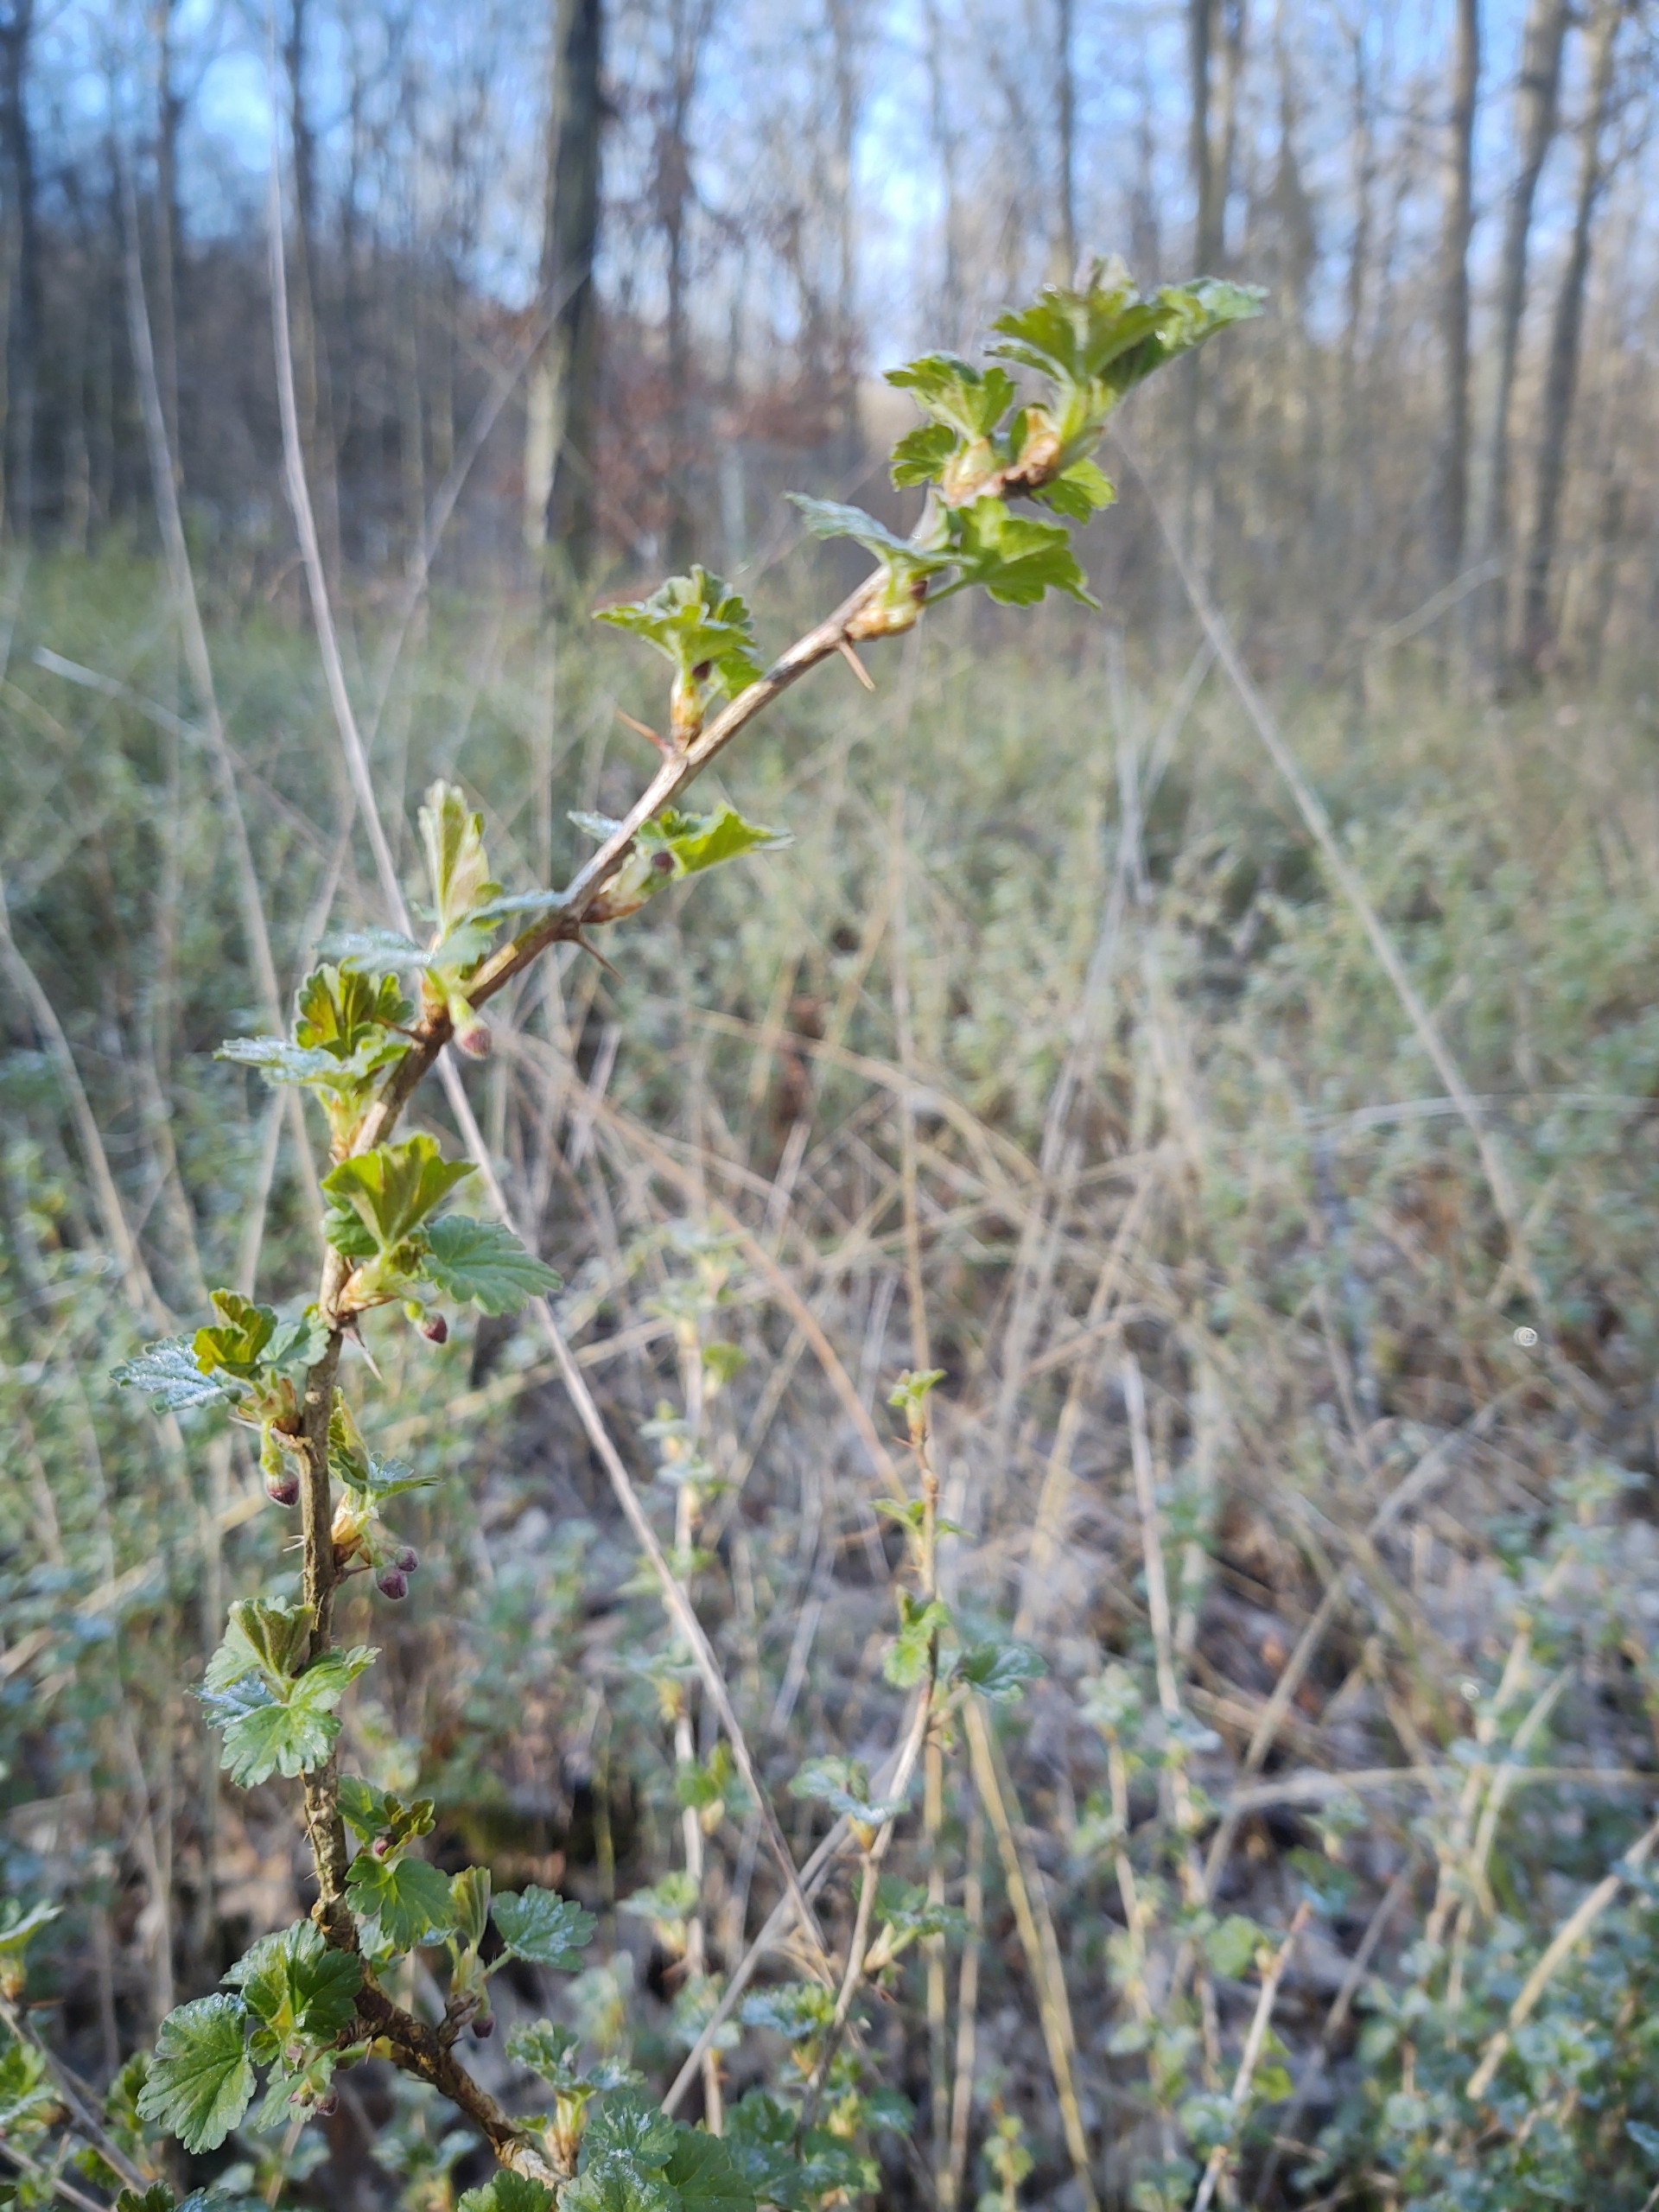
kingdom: Plantae
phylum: Tracheophyta
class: Magnoliopsida
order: Saxifragales
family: Grossulariaceae
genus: Ribes
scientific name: Ribes uva-crispa
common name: Stikkelsbær
